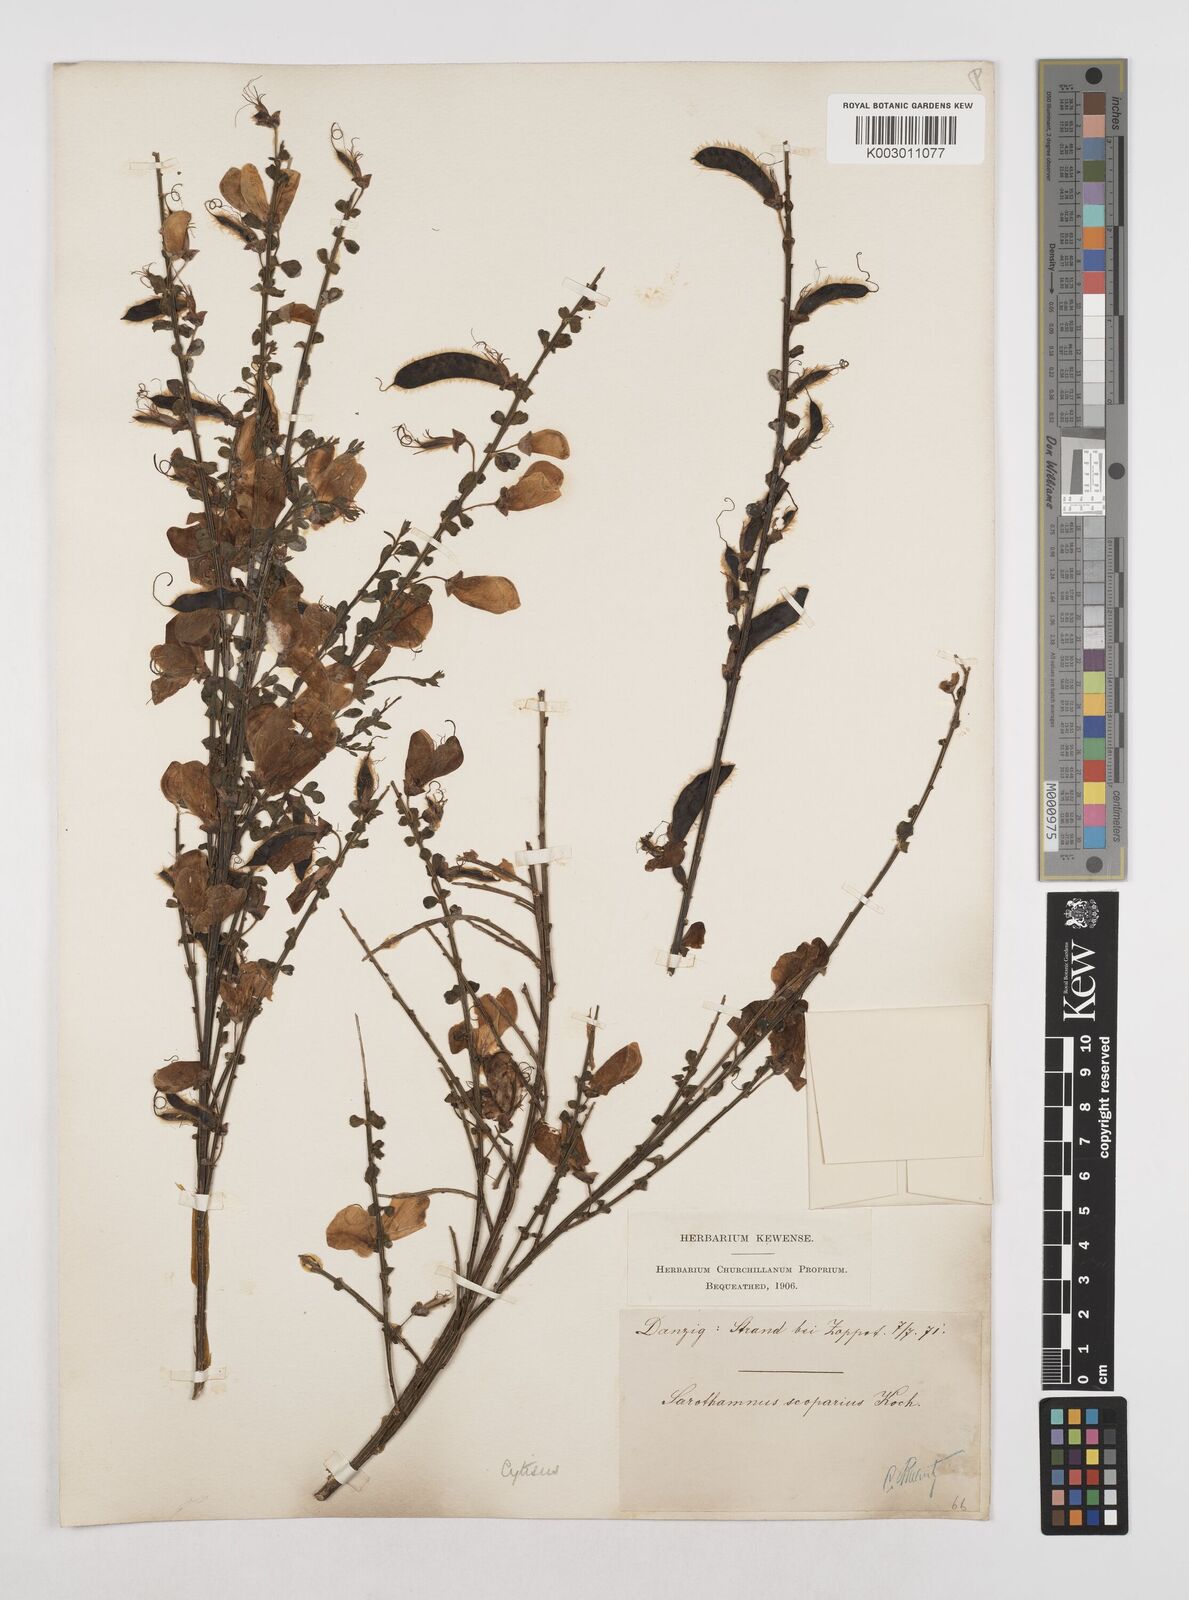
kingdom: Plantae
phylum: Tracheophyta
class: Magnoliopsida
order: Fabales
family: Fabaceae
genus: Cytisus
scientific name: Cytisus scoparius
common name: Scotch broom
